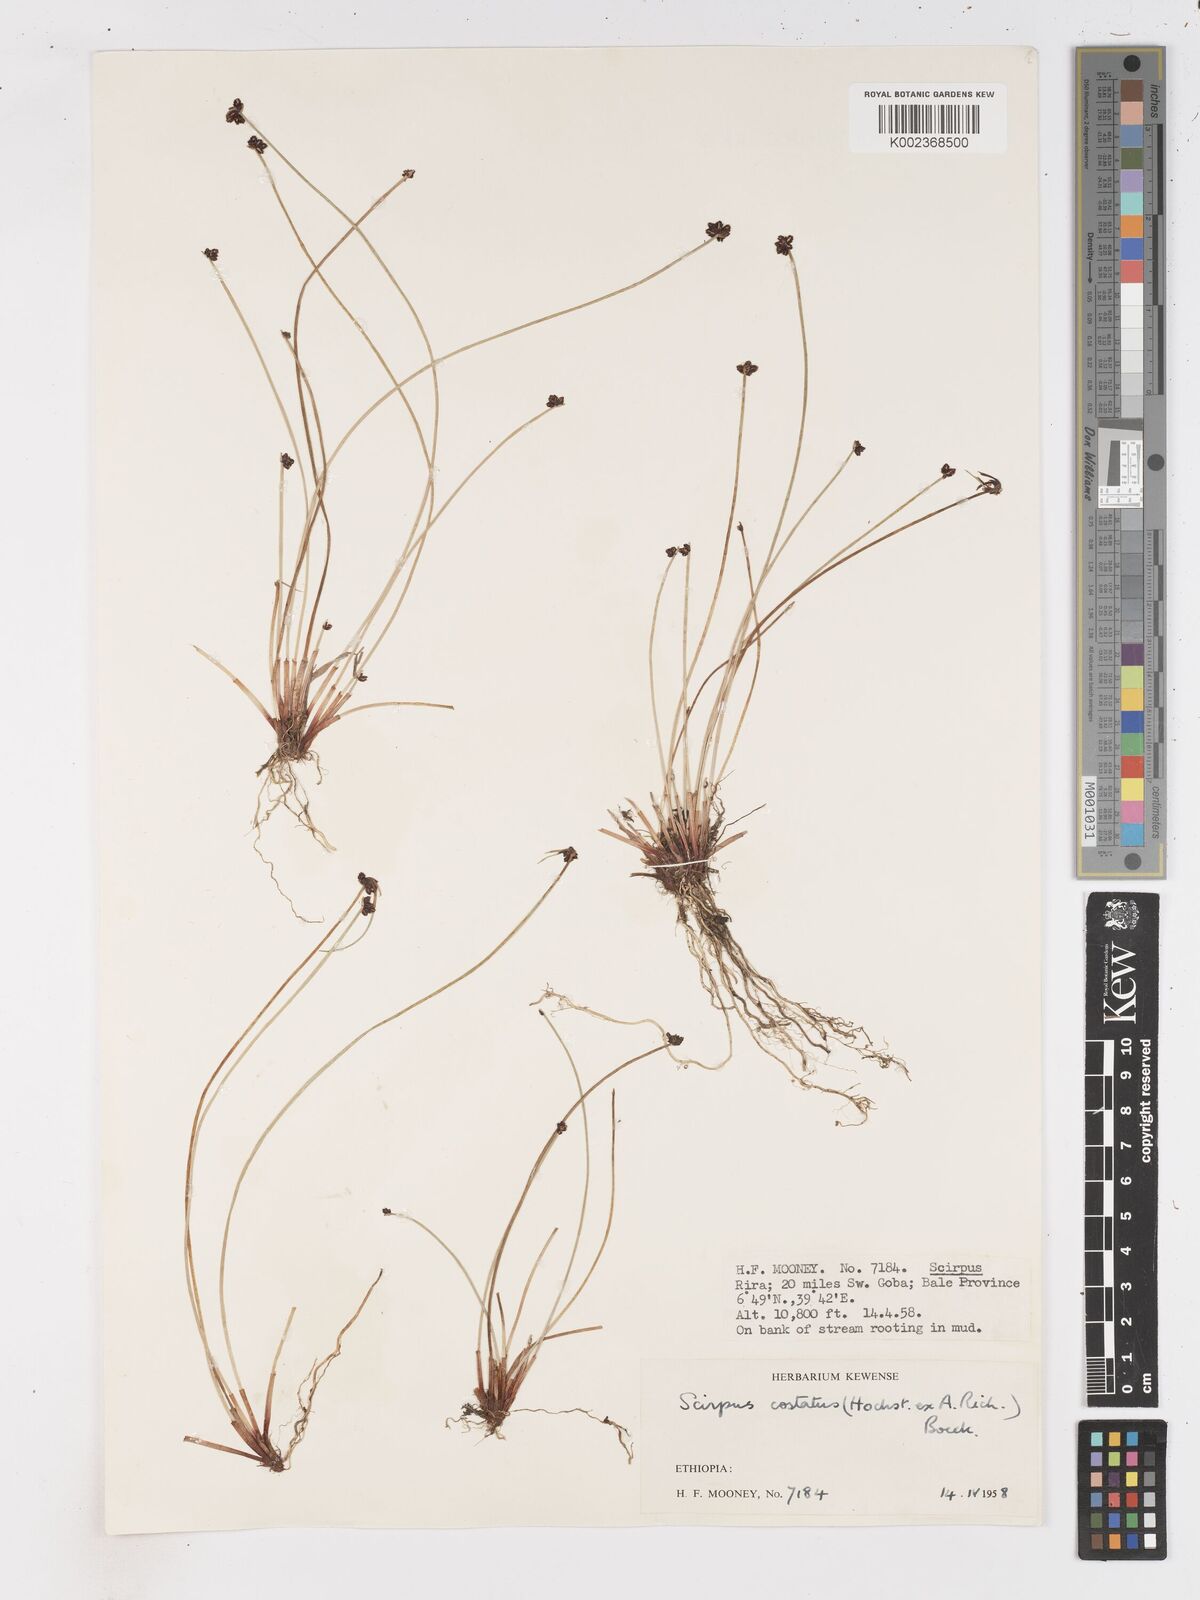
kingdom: Plantae
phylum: Tracheophyta
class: Liliopsida
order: Poales
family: Cyperaceae
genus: Isolepis
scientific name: Isolepis costata
